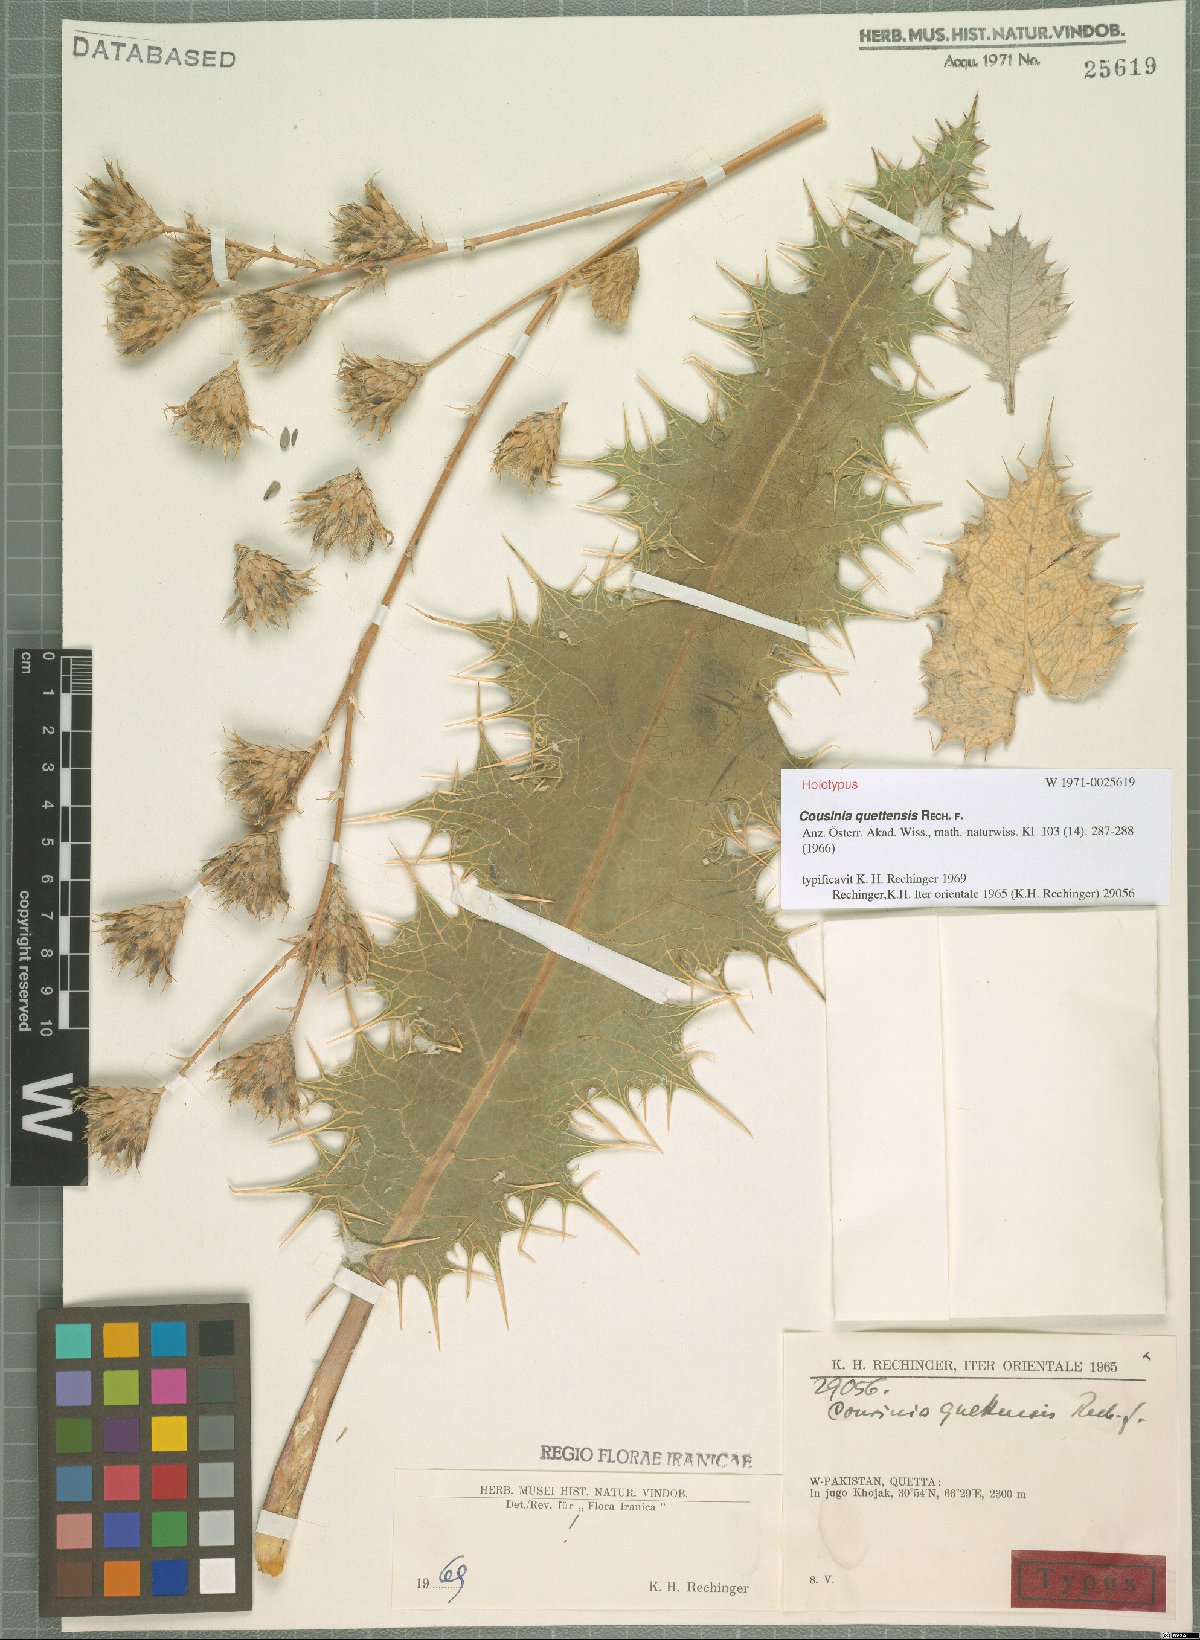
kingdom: Plantae
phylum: Tracheophyta
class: Magnoliopsida
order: Asterales
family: Asteraceae
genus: Cousinia
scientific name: Cousinia quettensis
